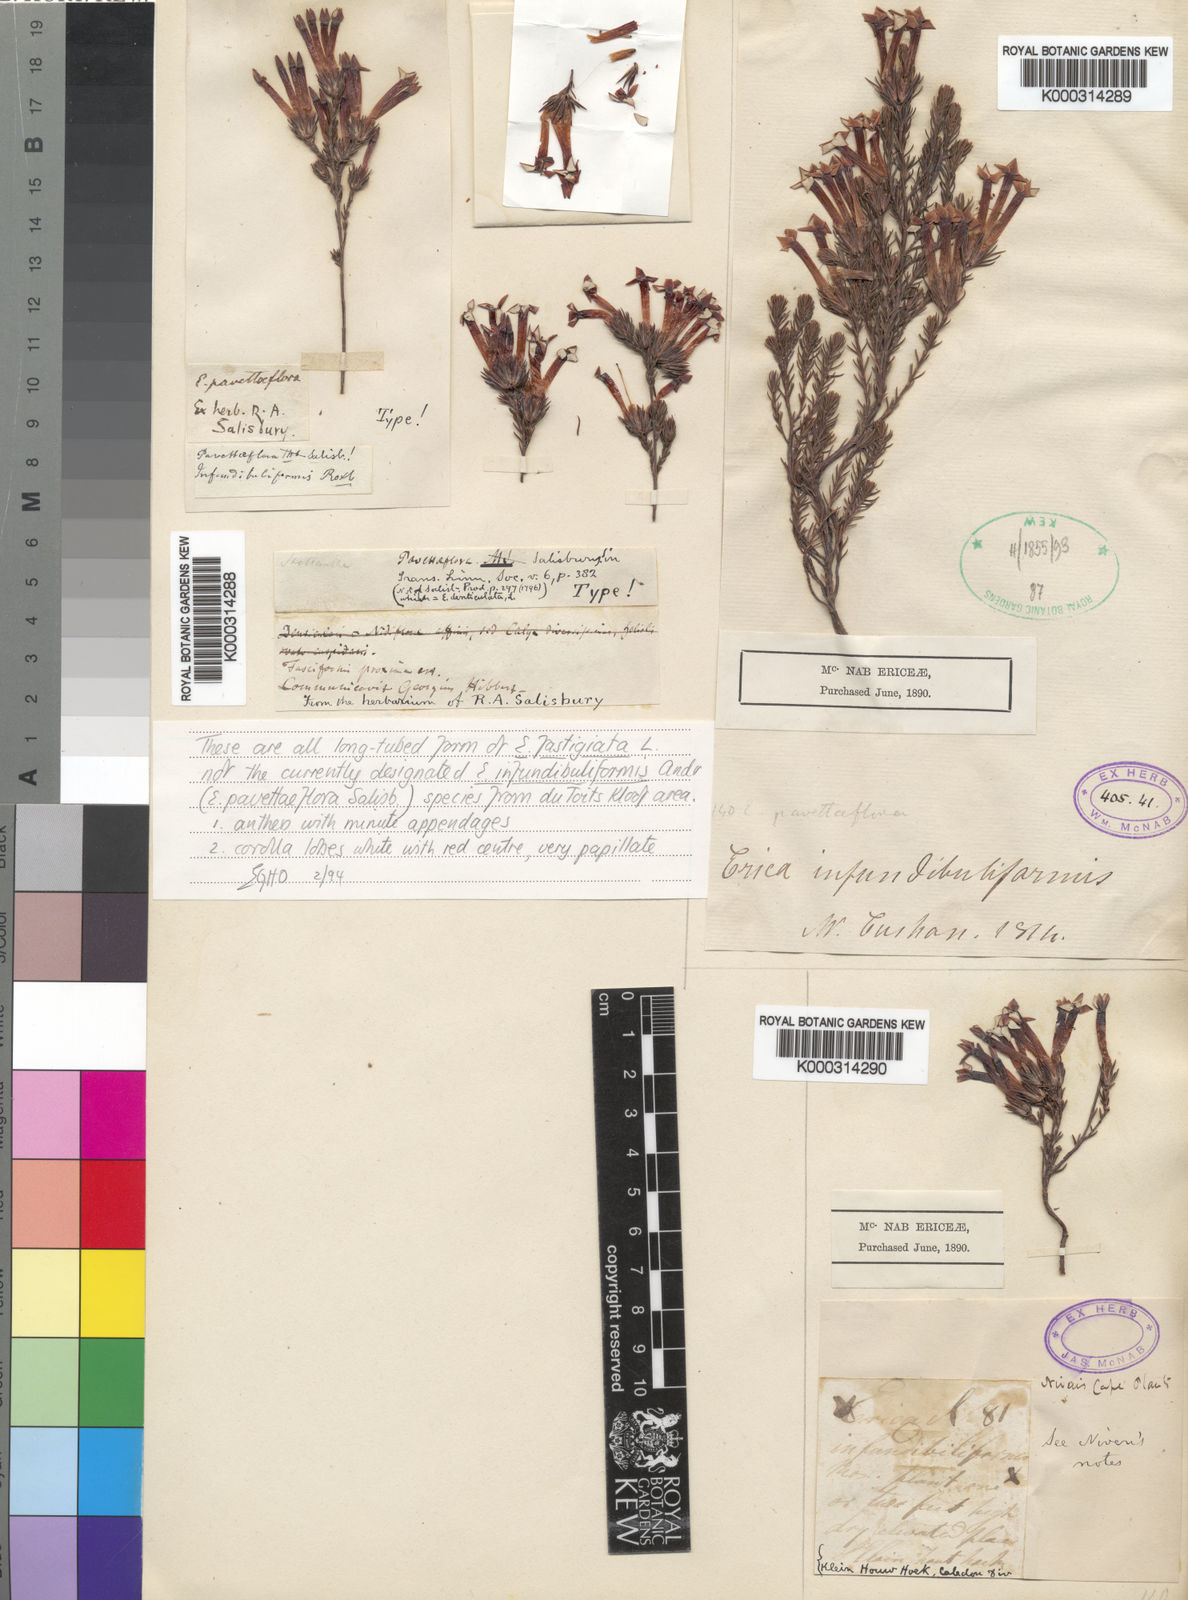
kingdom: Plantae
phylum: Tracheophyta
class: Magnoliopsida
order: Ericales
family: Ericaceae
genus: Erica
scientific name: Erica fastigiata
